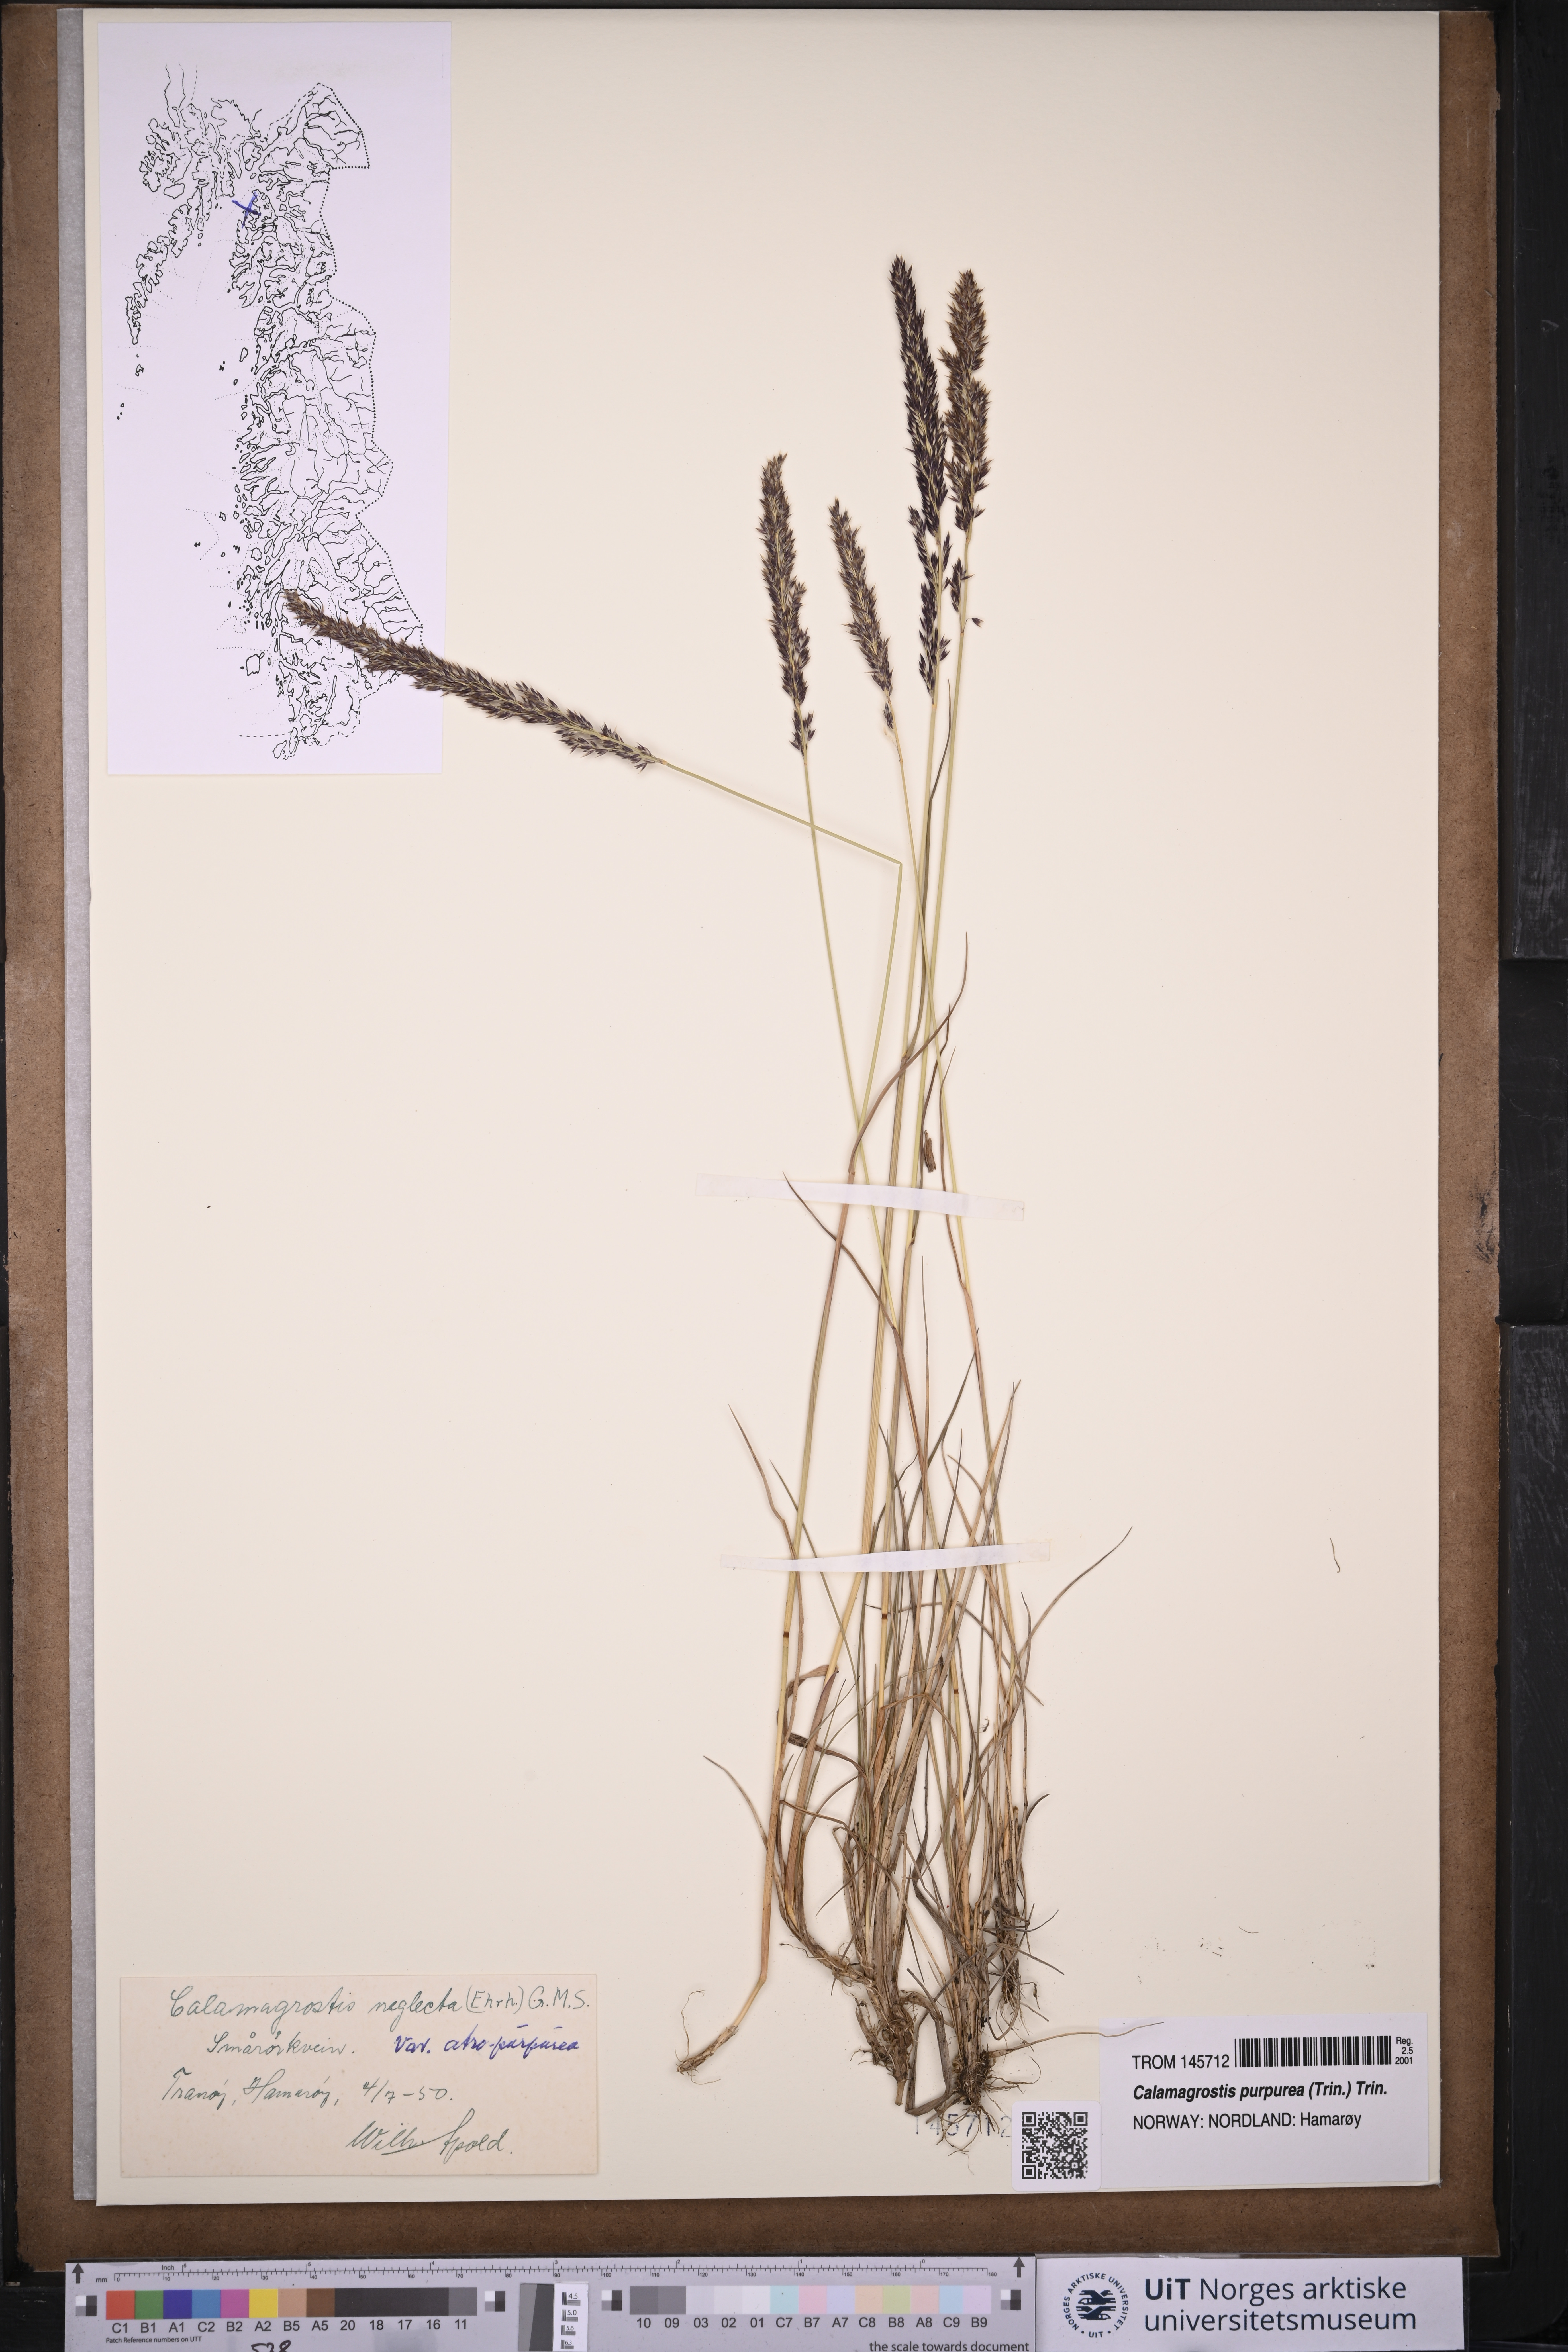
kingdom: Plantae
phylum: Tracheophyta
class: Liliopsida
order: Poales
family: Poaceae
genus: Calamagrostis
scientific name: Calamagrostis purpurea
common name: Scandinavian small-reed
